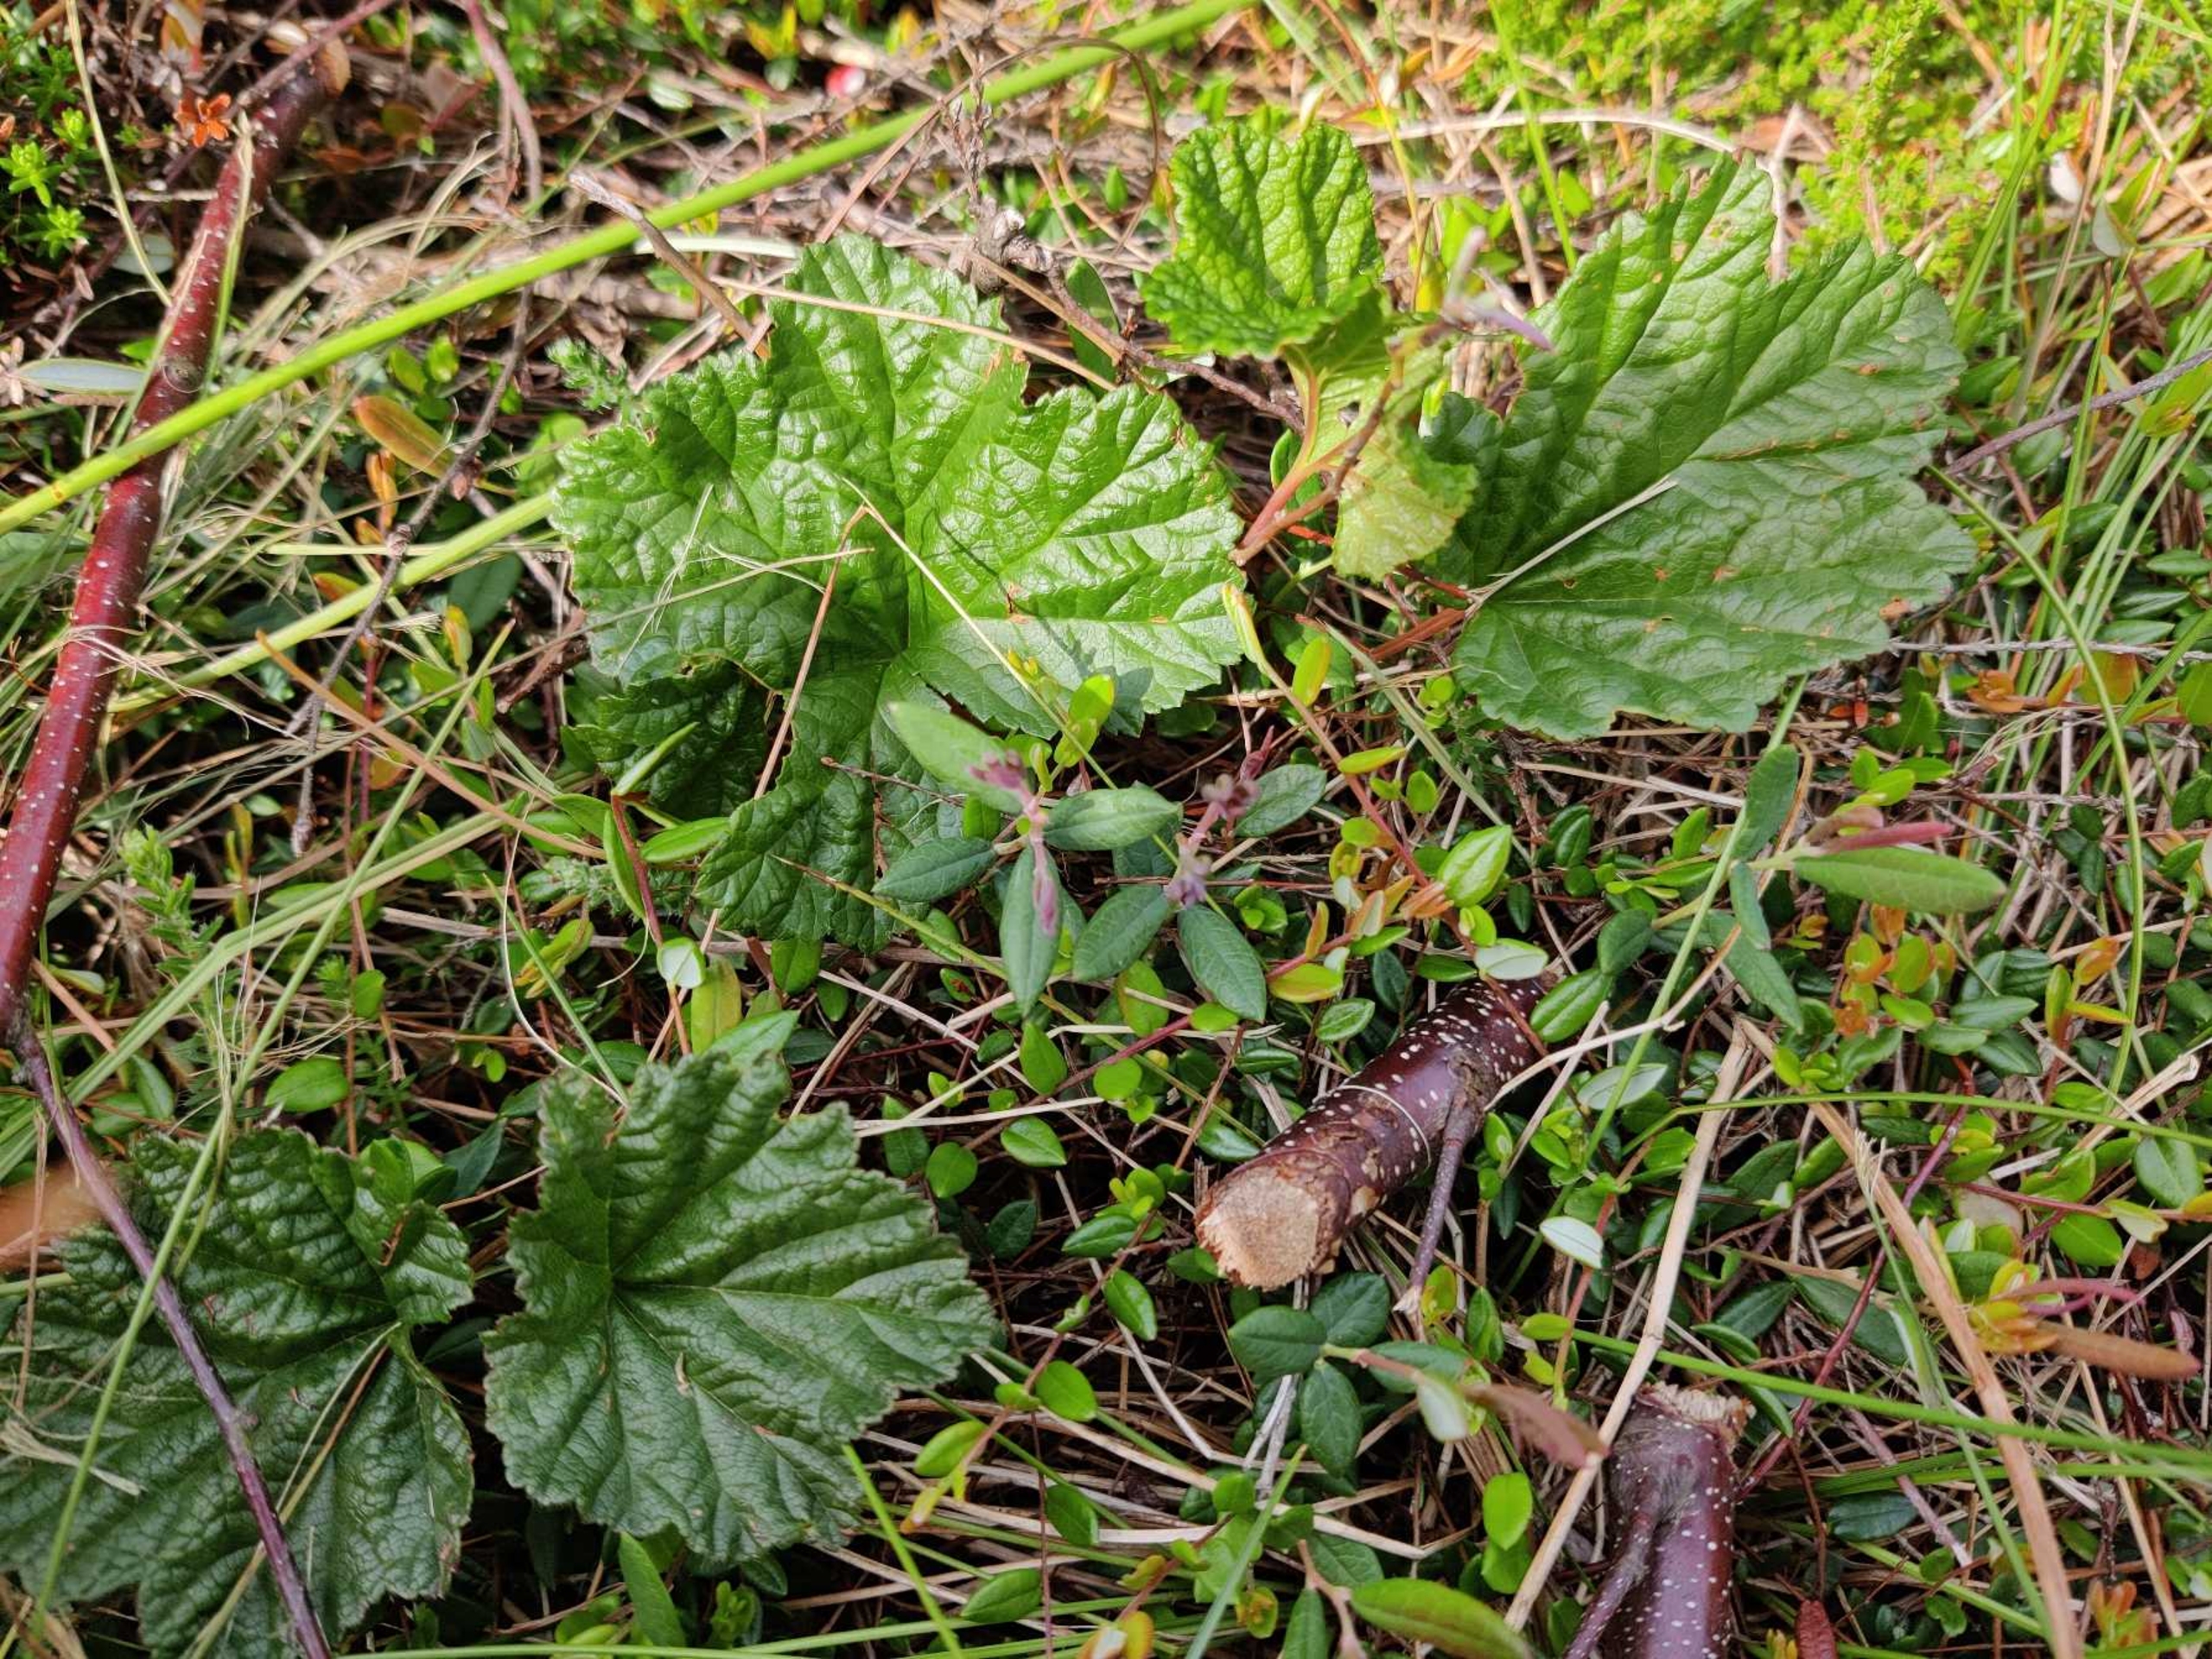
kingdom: Plantae
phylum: Tracheophyta
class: Magnoliopsida
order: Rosales
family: Rosaceae
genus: Rubus
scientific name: Rubus chamaemorus
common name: Multebær
